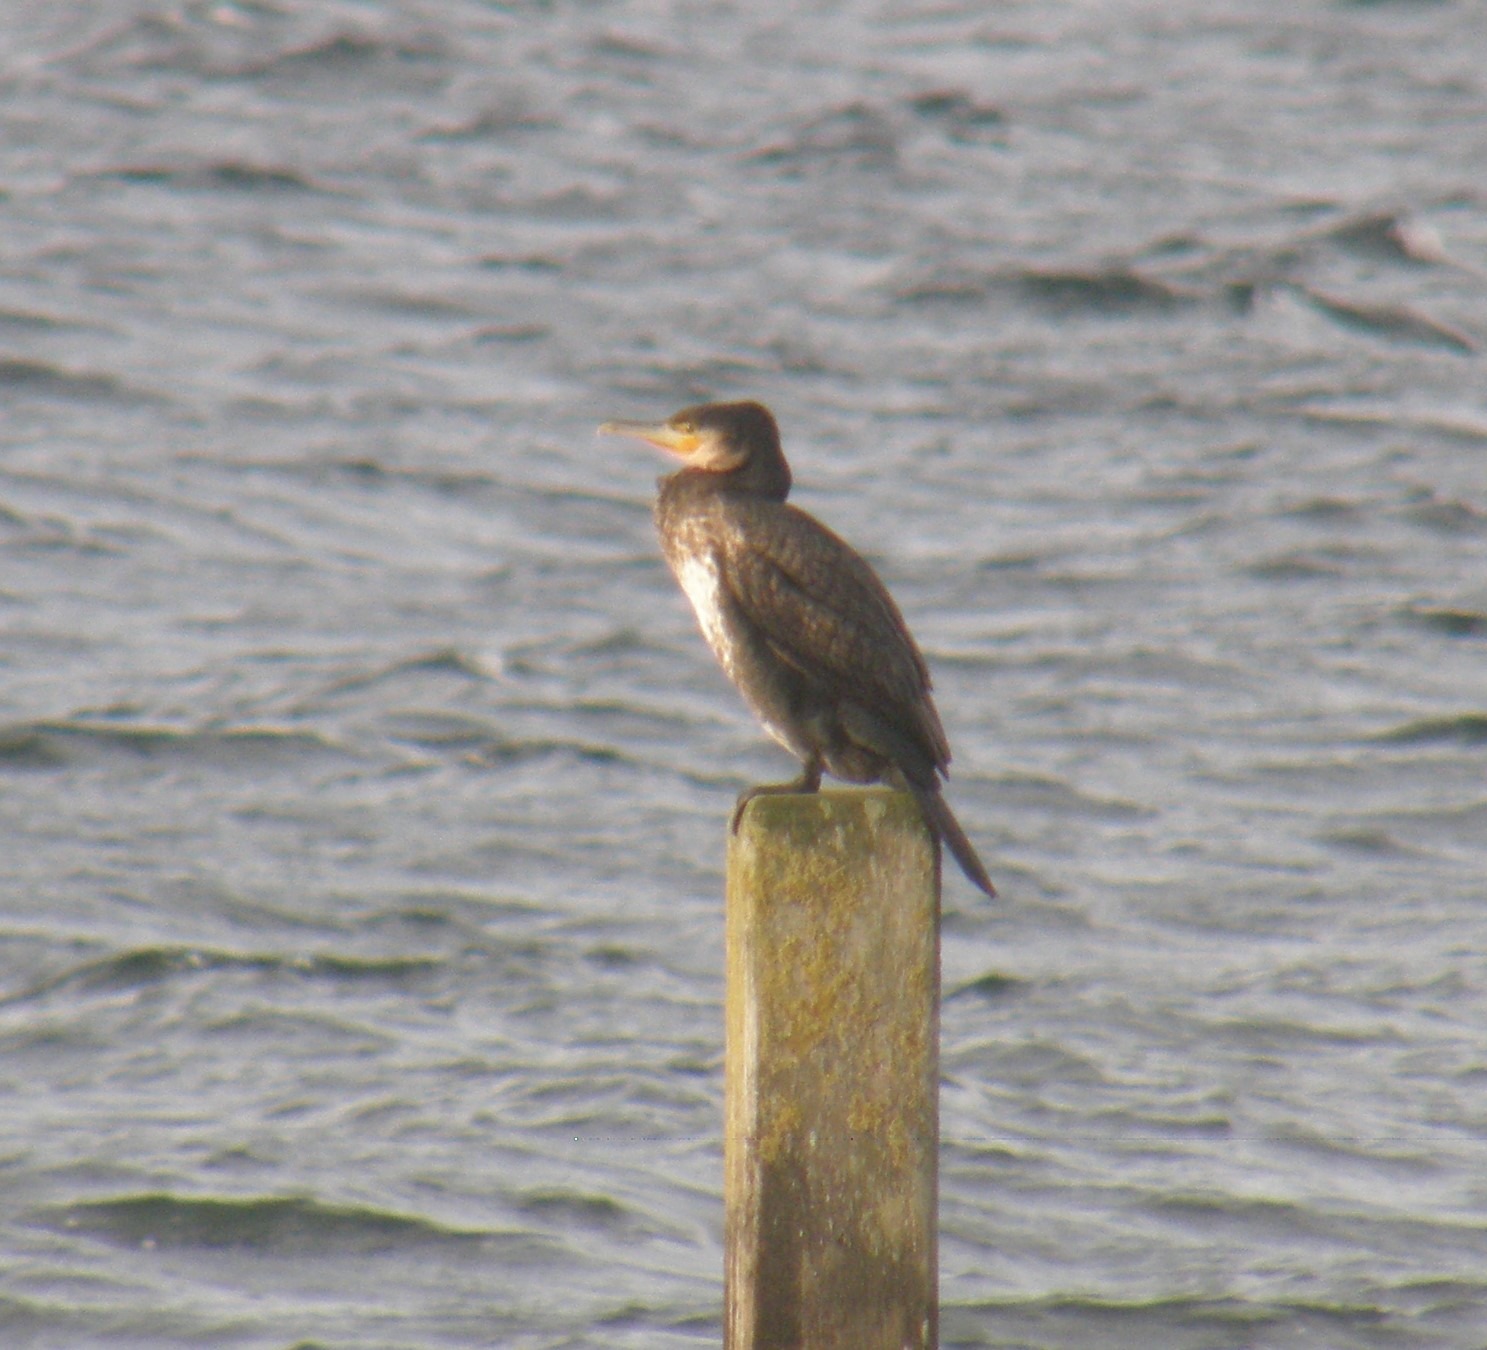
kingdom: Animalia
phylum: Chordata
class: Aves
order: Suliformes
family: Phalacrocoracidae
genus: Phalacrocorax
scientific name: Phalacrocorax carbo
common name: Skarv
